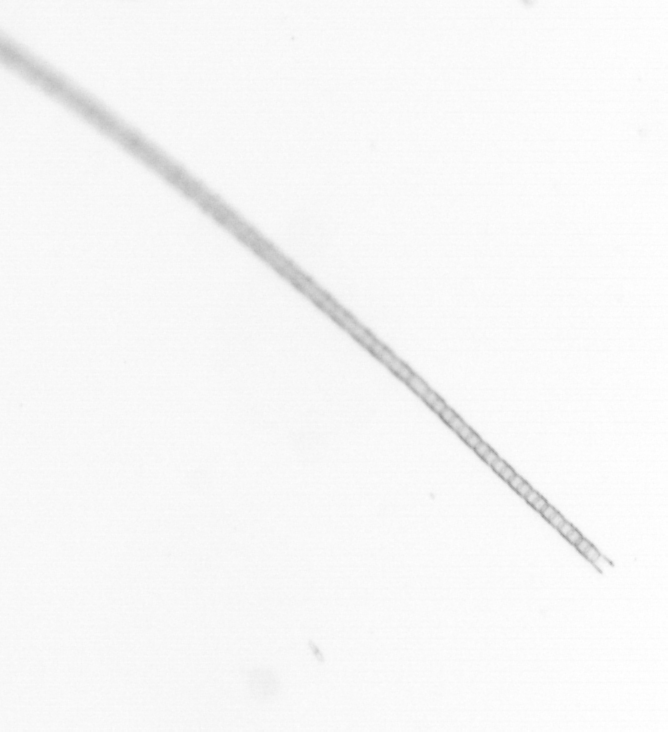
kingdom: Chromista
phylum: Ochrophyta
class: Bacillariophyceae
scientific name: Bacillariophyceae
